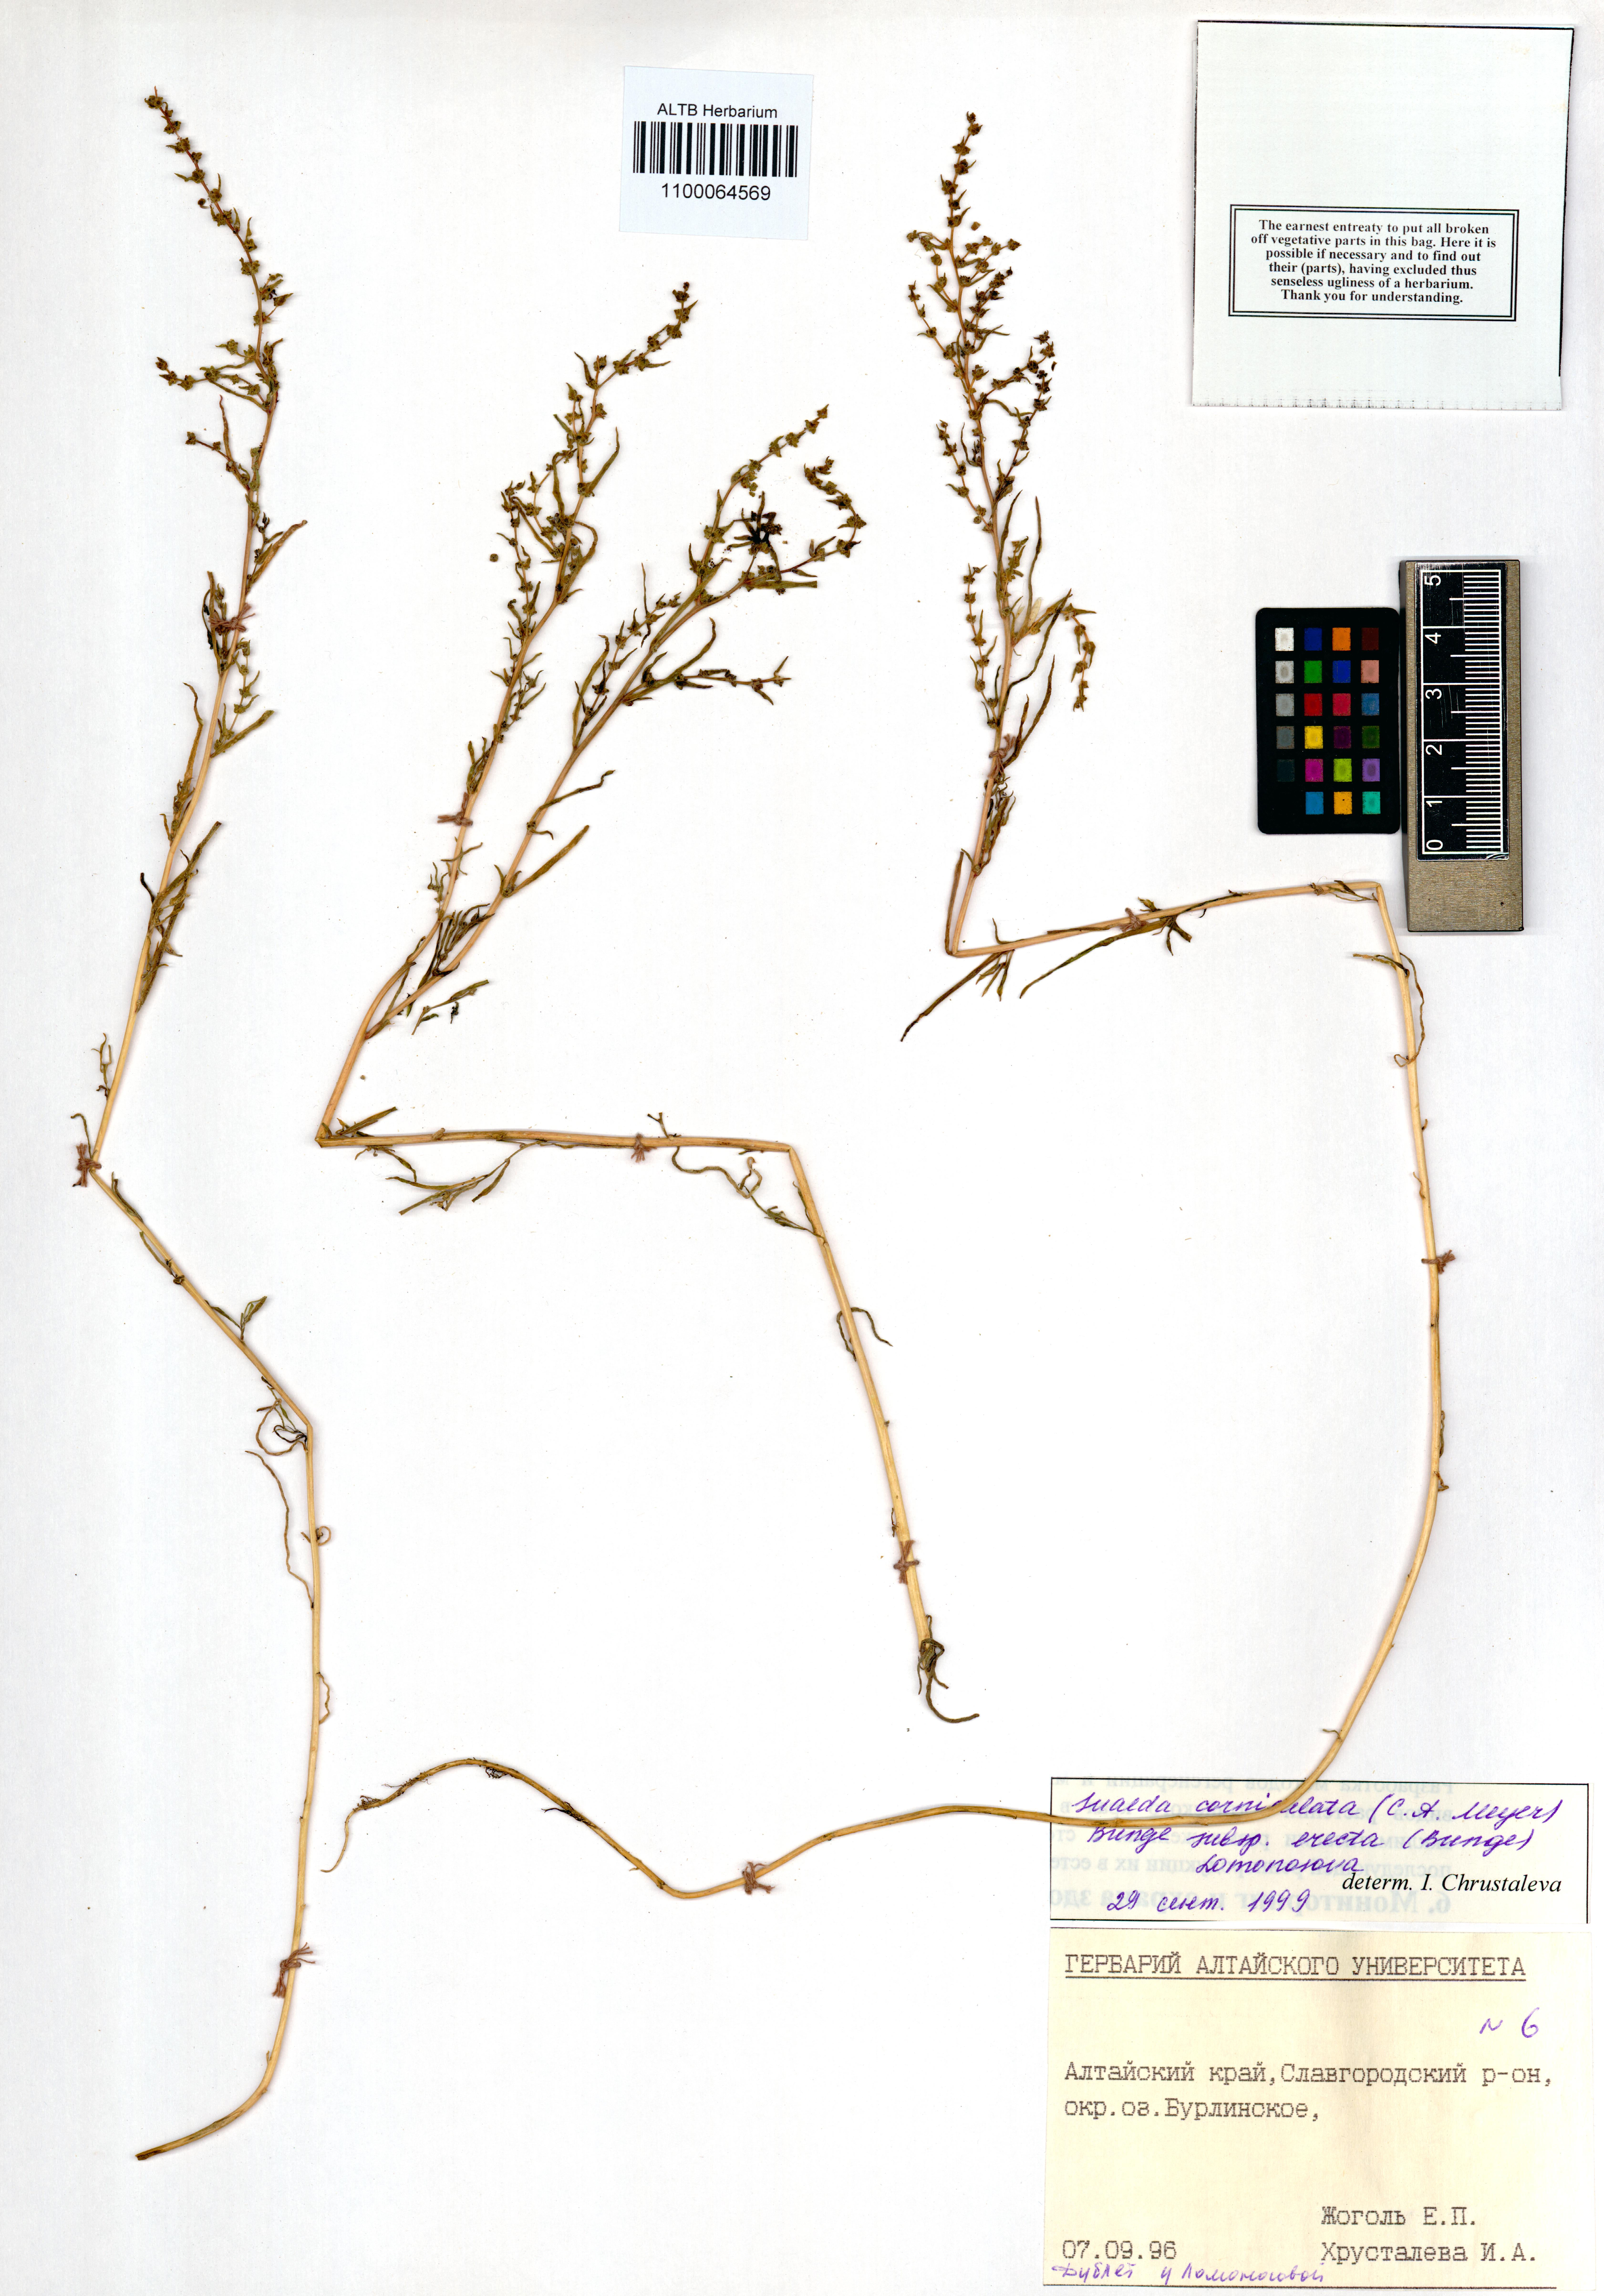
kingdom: Plantae
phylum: Tracheophyta
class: Magnoliopsida
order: Caryophyllales
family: Amaranthaceae
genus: Suaeda
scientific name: Suaeda corniculata
